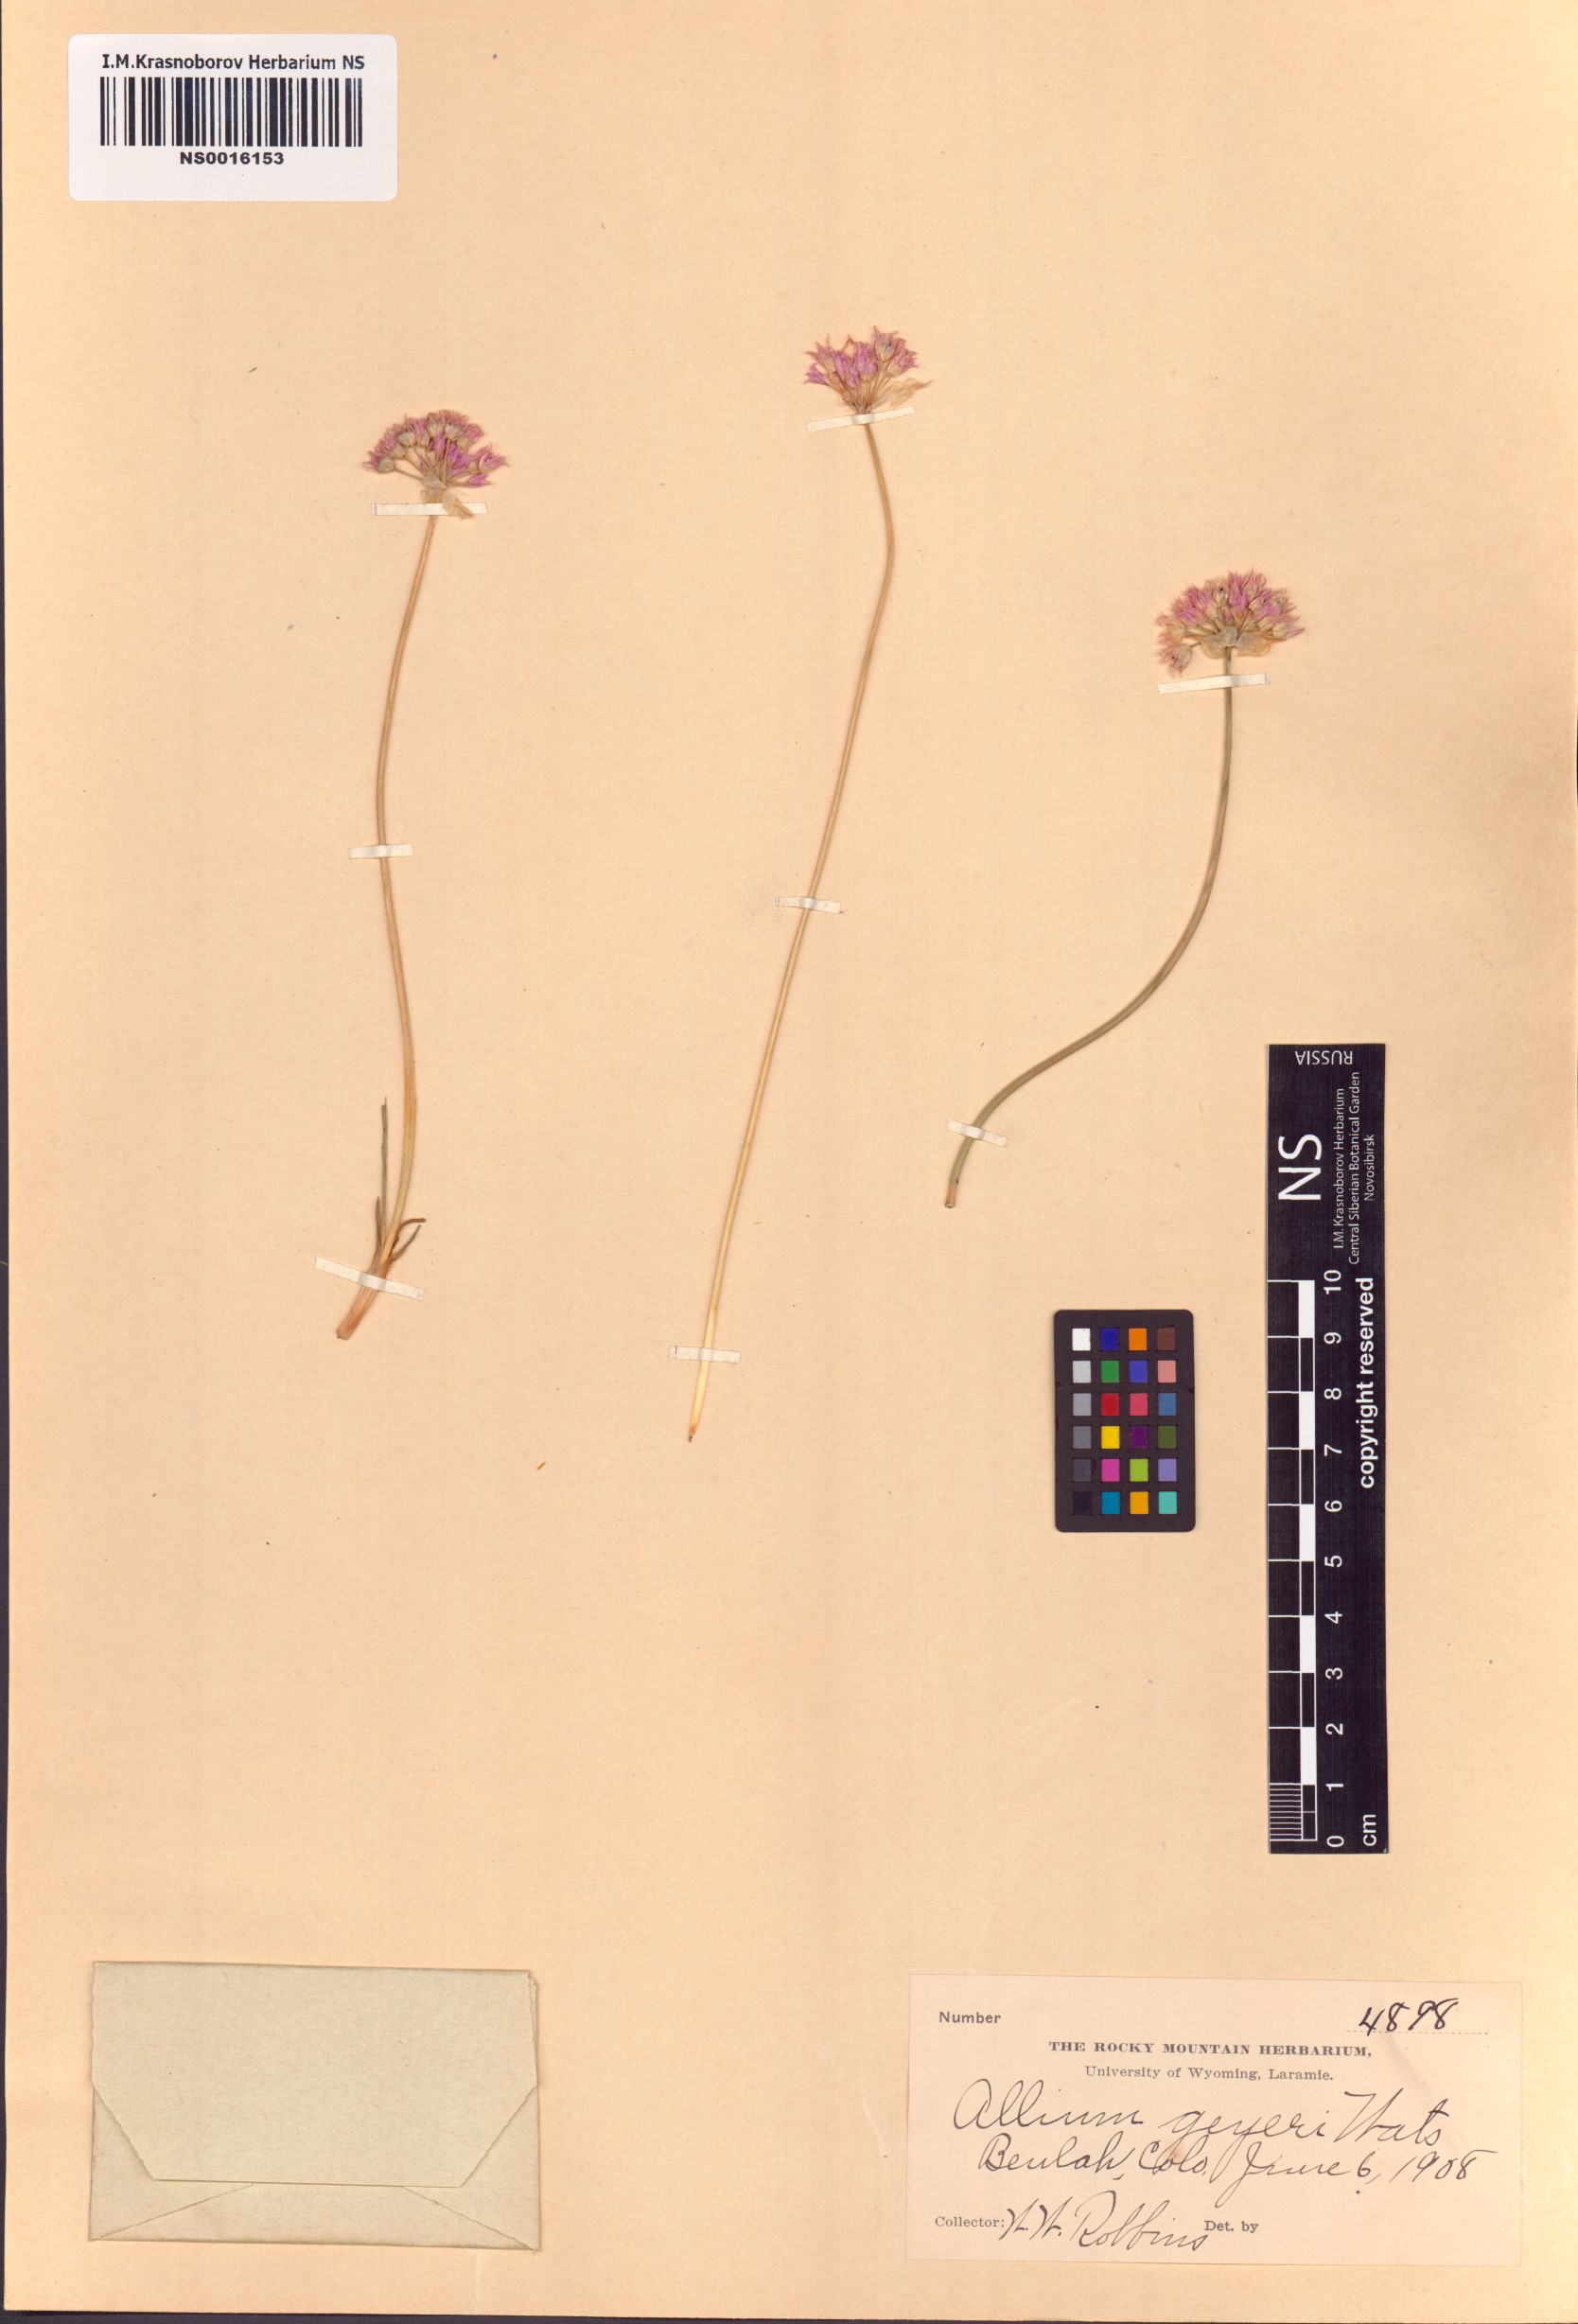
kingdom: Plantae
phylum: Tracheophyta
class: Liliopsida
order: Asparagales
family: Amaryllidaceae
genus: Allium
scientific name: Allium geyeri
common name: Geyer's onion
